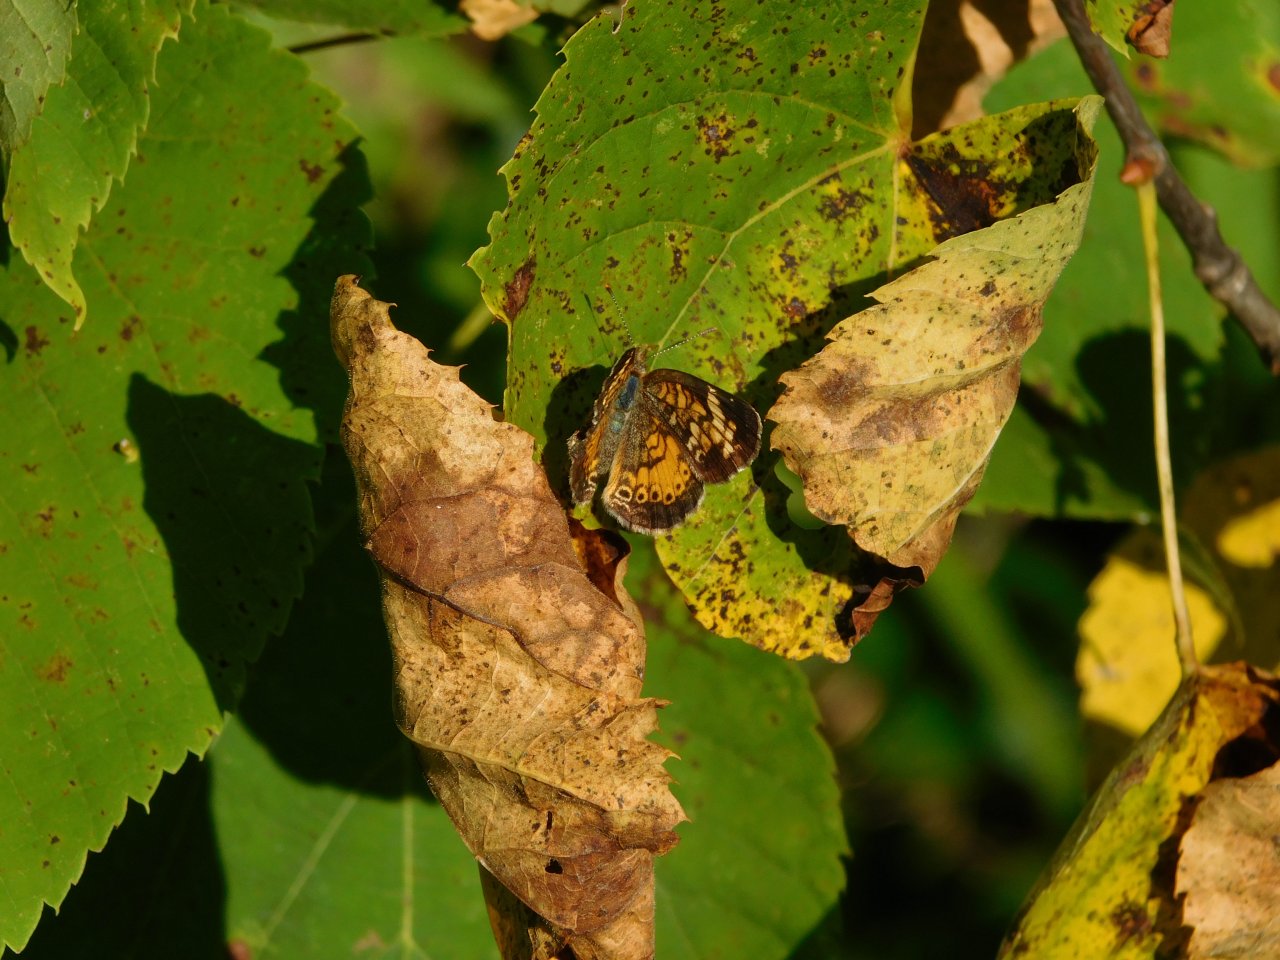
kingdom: Animalia
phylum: Arthropoda
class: Insecta
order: Lepidoptera
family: Nymphalidae
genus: Phyciodes
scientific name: Phyciodes tharos
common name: Northern Crescent
